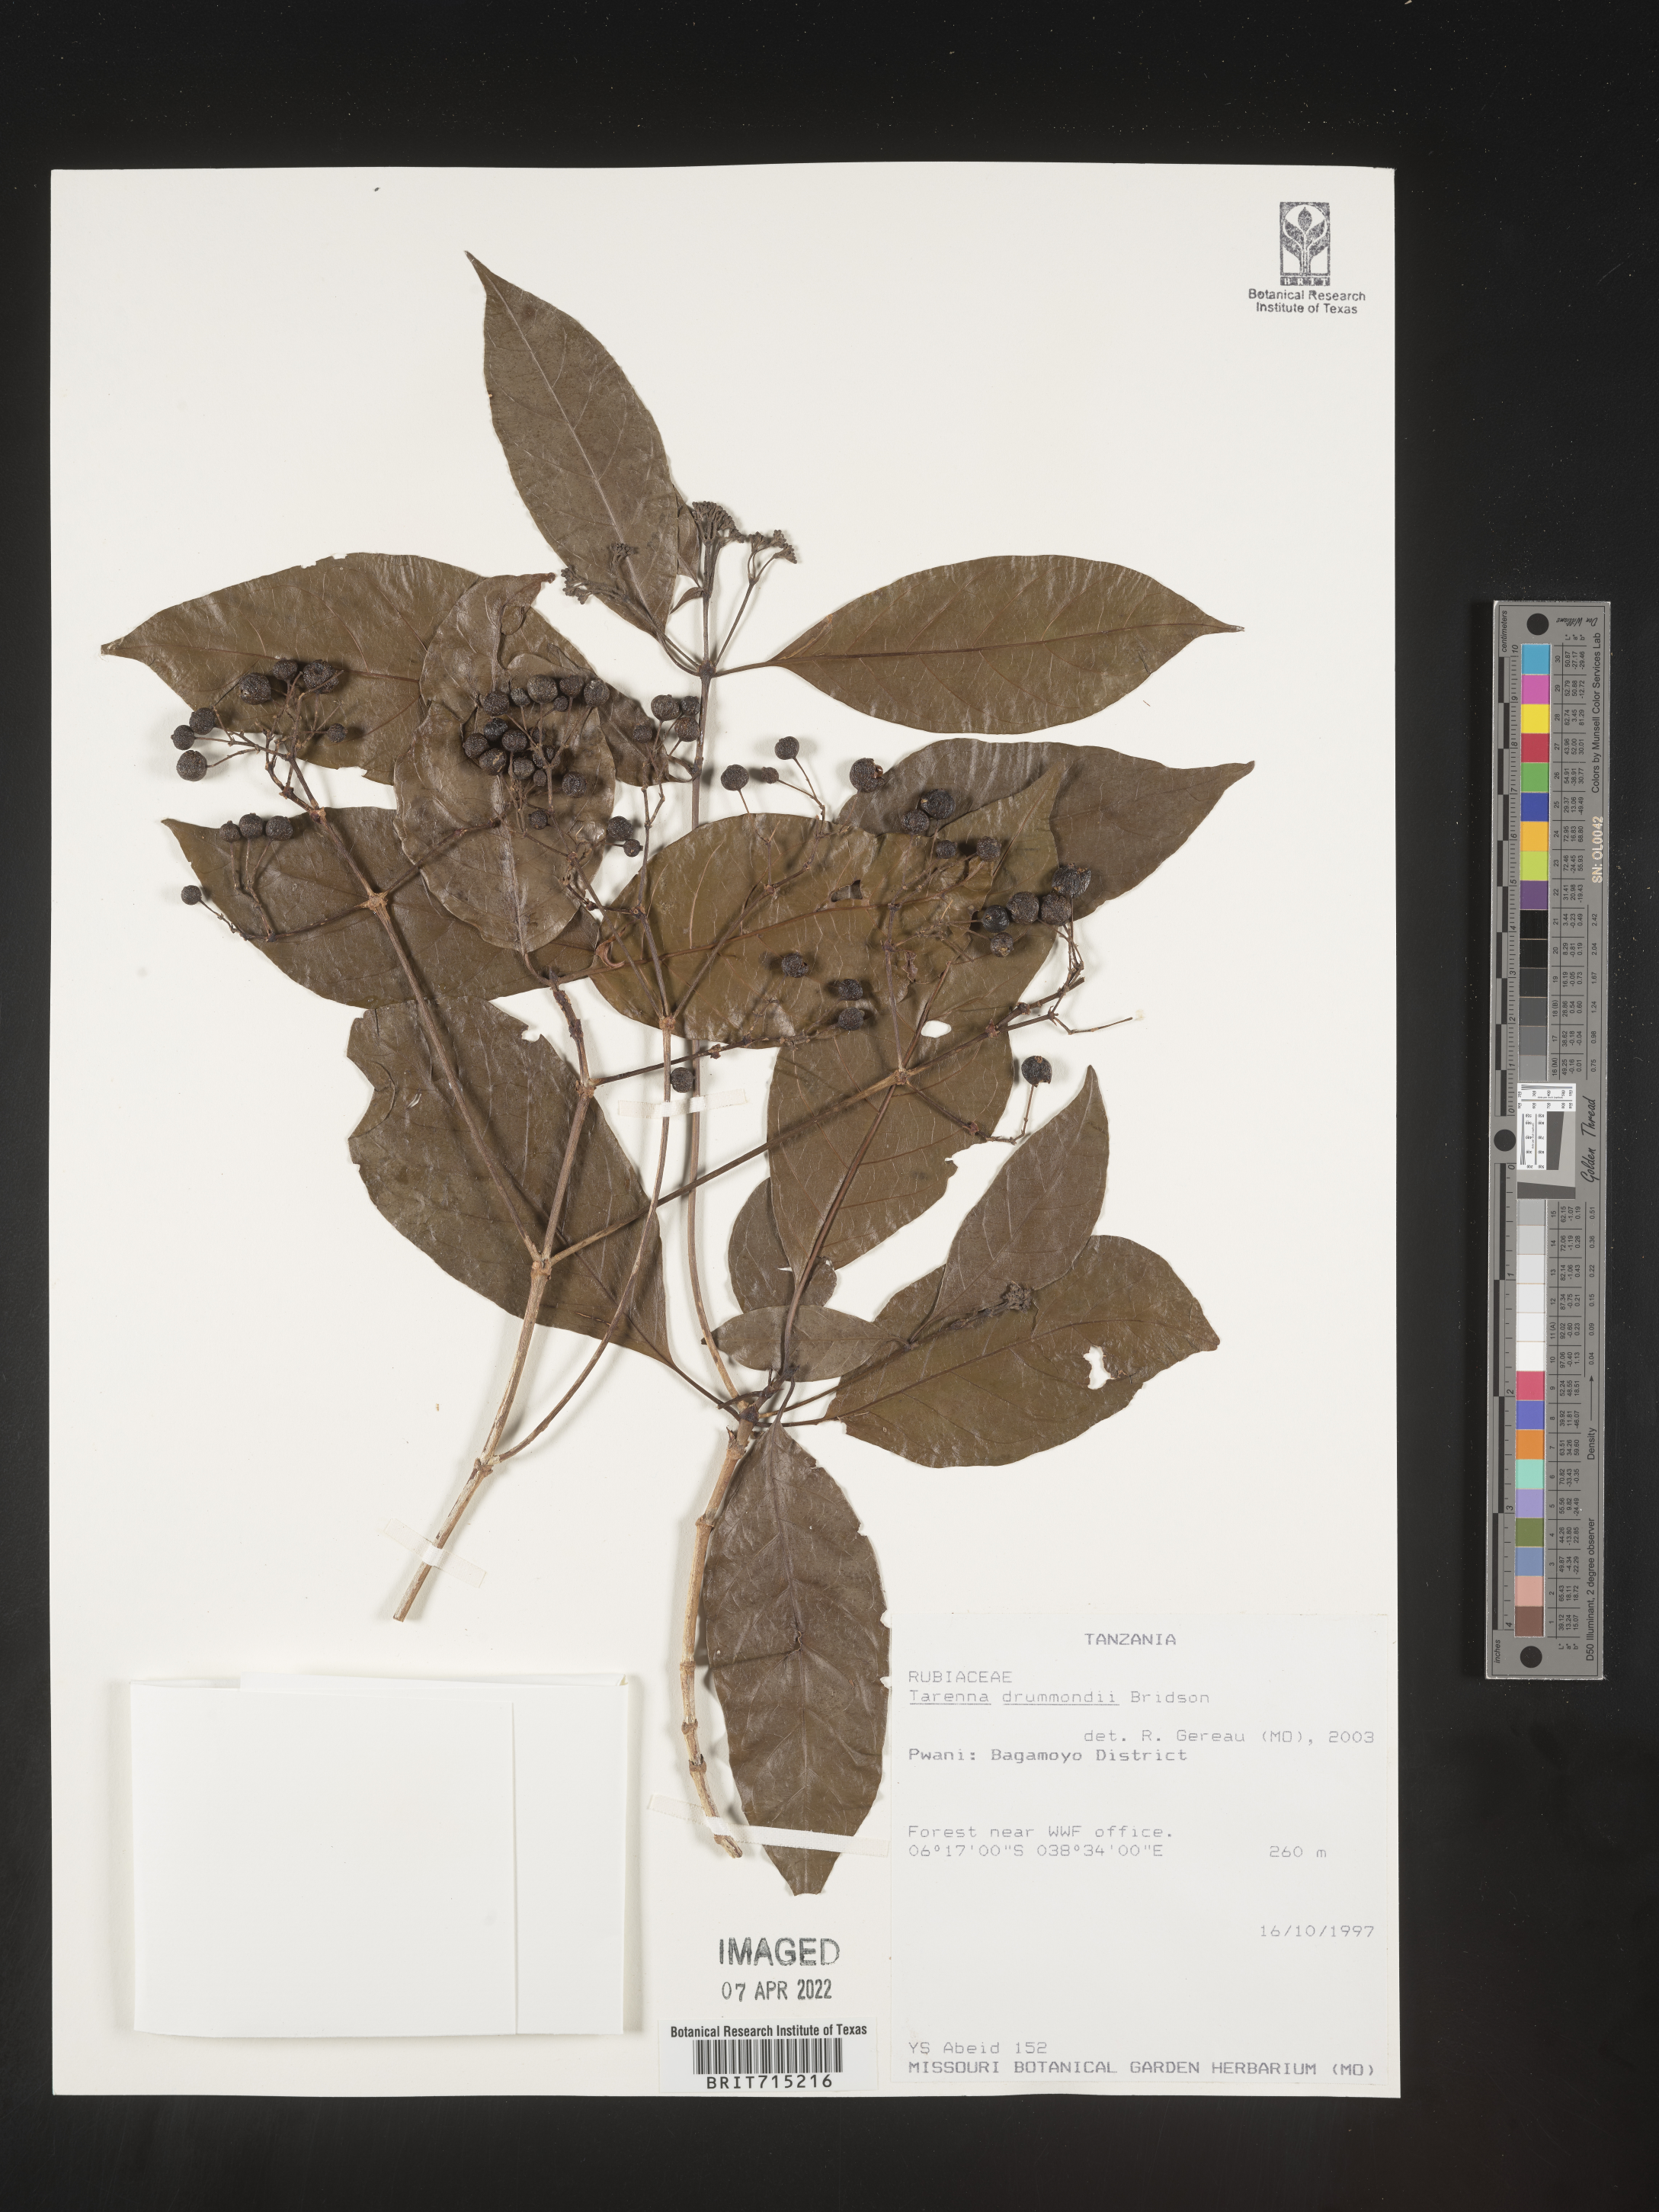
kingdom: Plantae
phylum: Tracheophyta
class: Magnoliopsida
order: Gentianales
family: Rubiaceae
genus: Tarenna
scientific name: Tarenna
